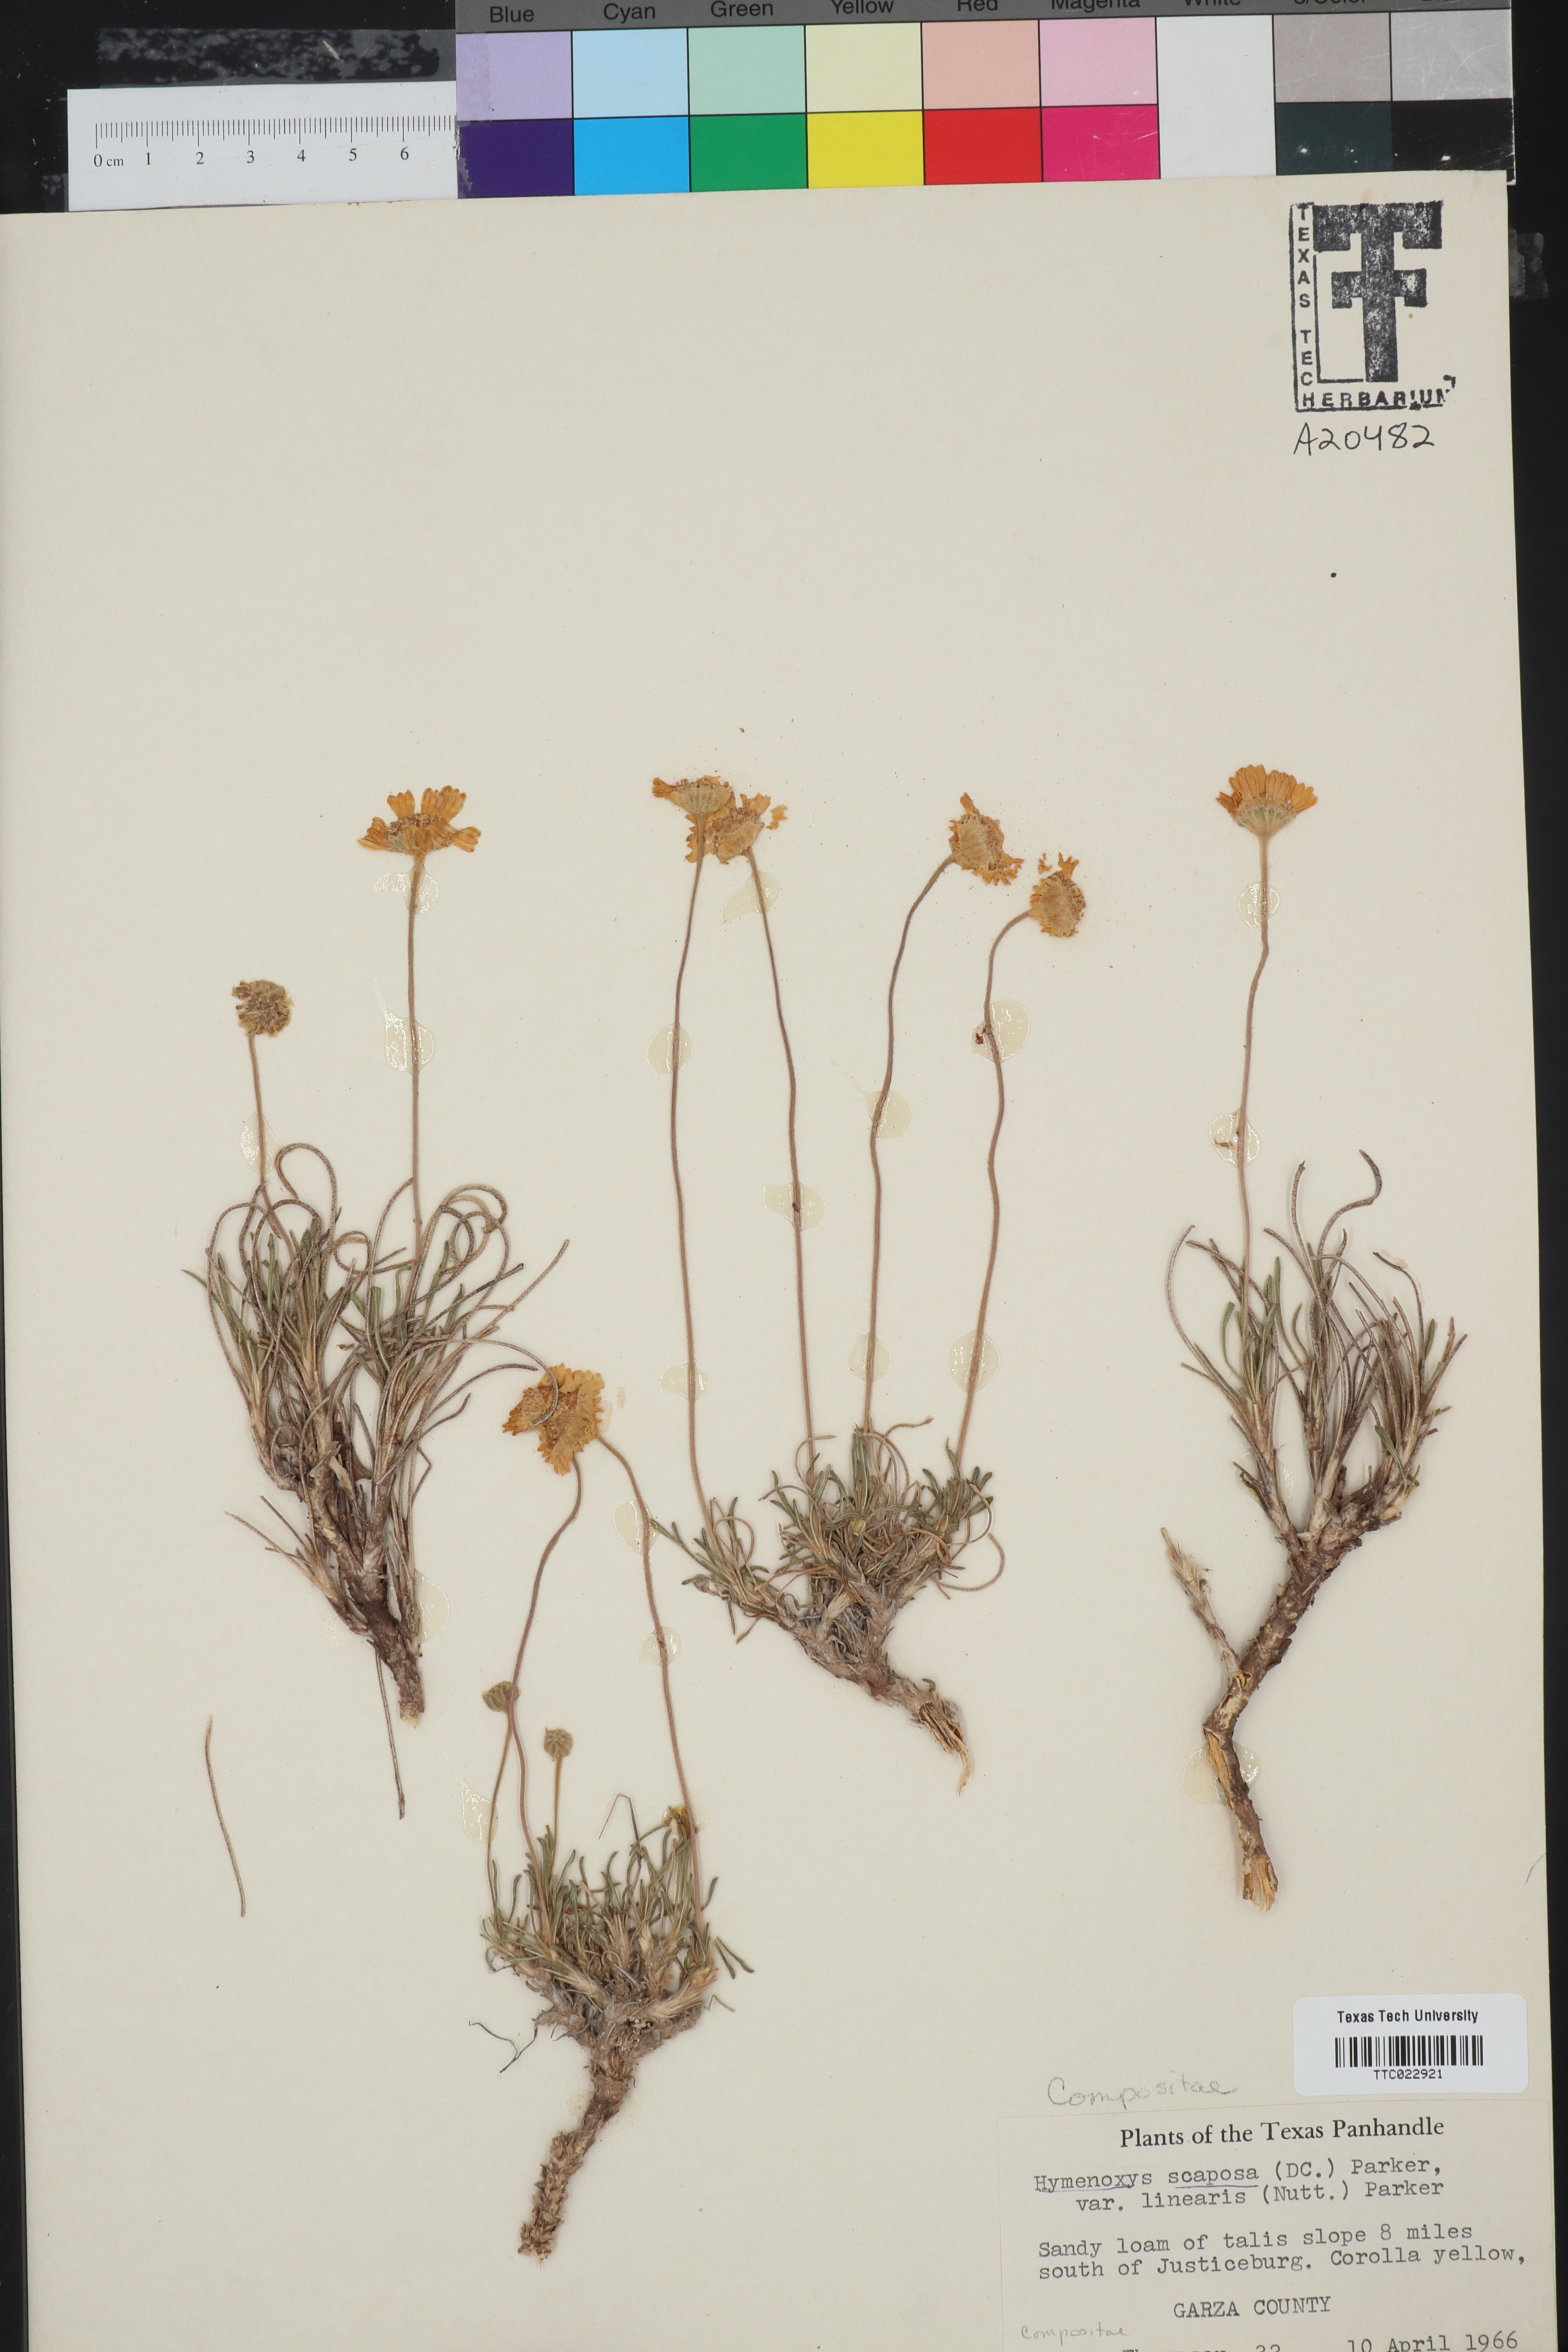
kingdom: Plantae
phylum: Tracheophyta
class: Magnoliopsida
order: Asterales
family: Asteraceae
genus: Tetraneuris
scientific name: Tetraneuris scaposa
